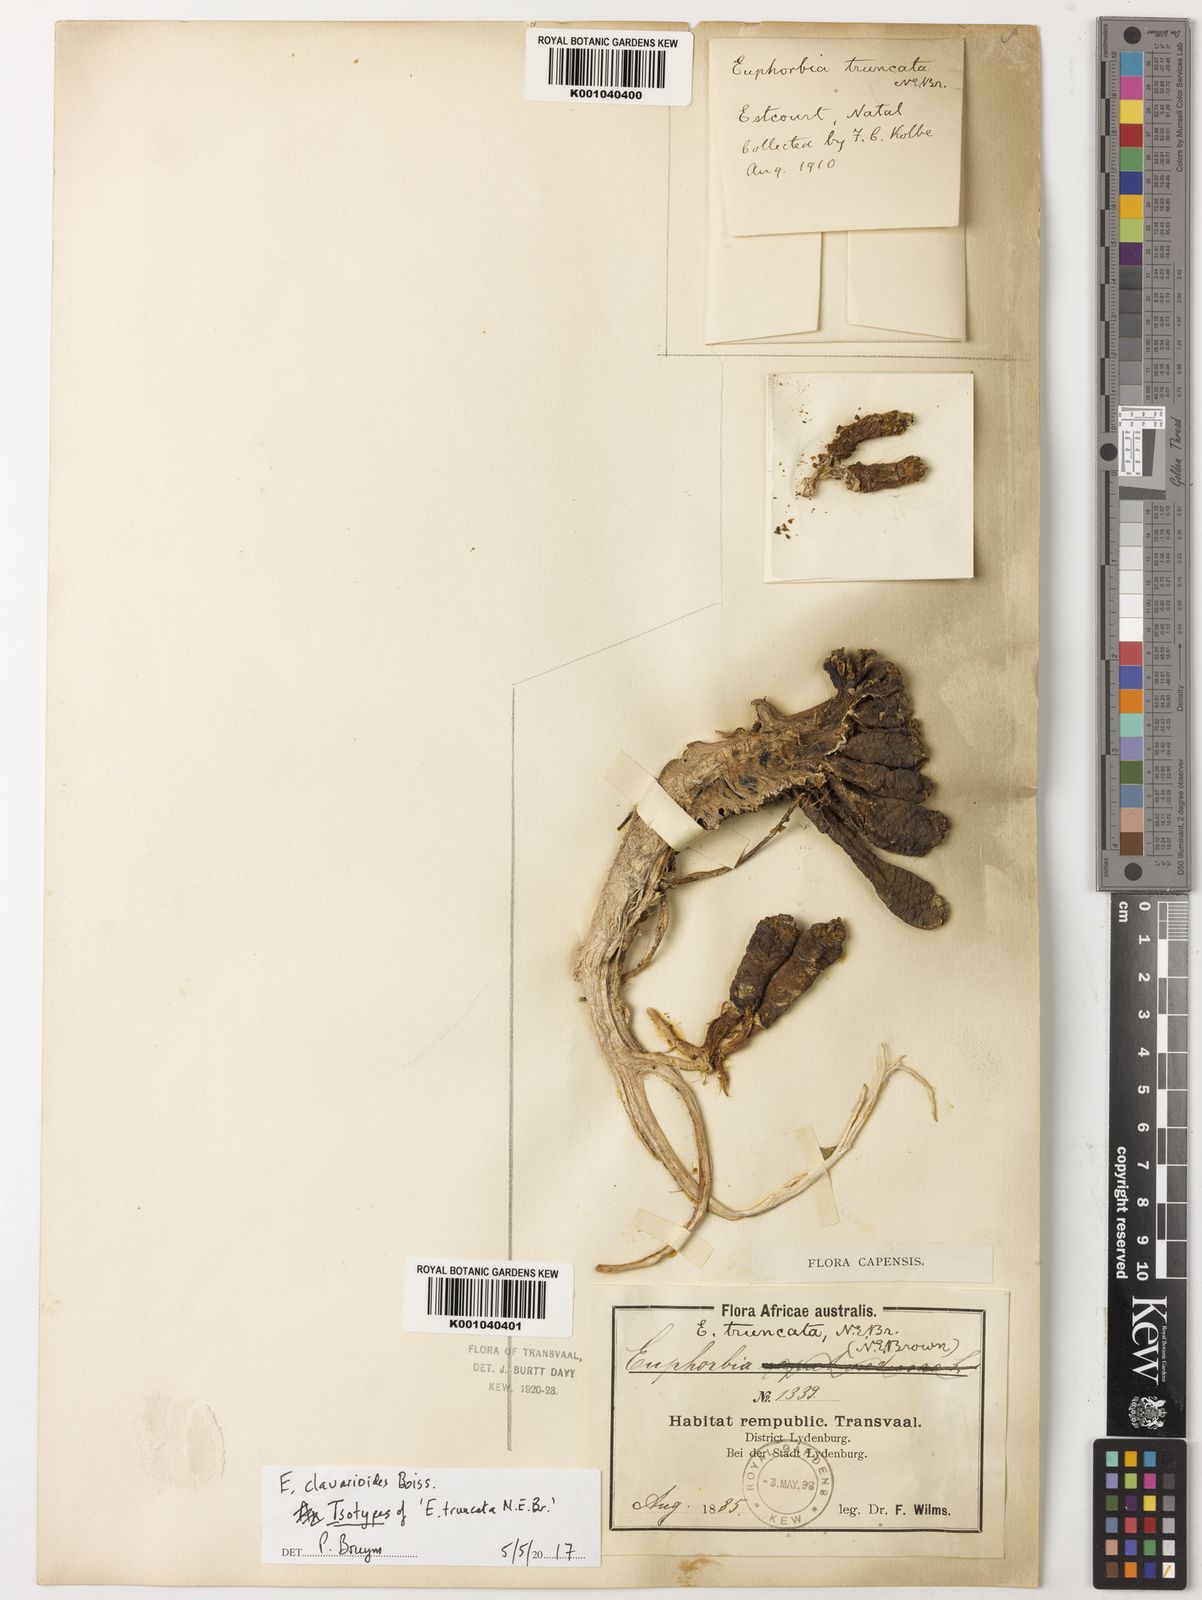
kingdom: Plantae
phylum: Tracheophyta
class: Magnoliopsida
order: Malpighiales
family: Euphorbiaceae
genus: Euphorbia
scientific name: Euphorbia clavarioides
